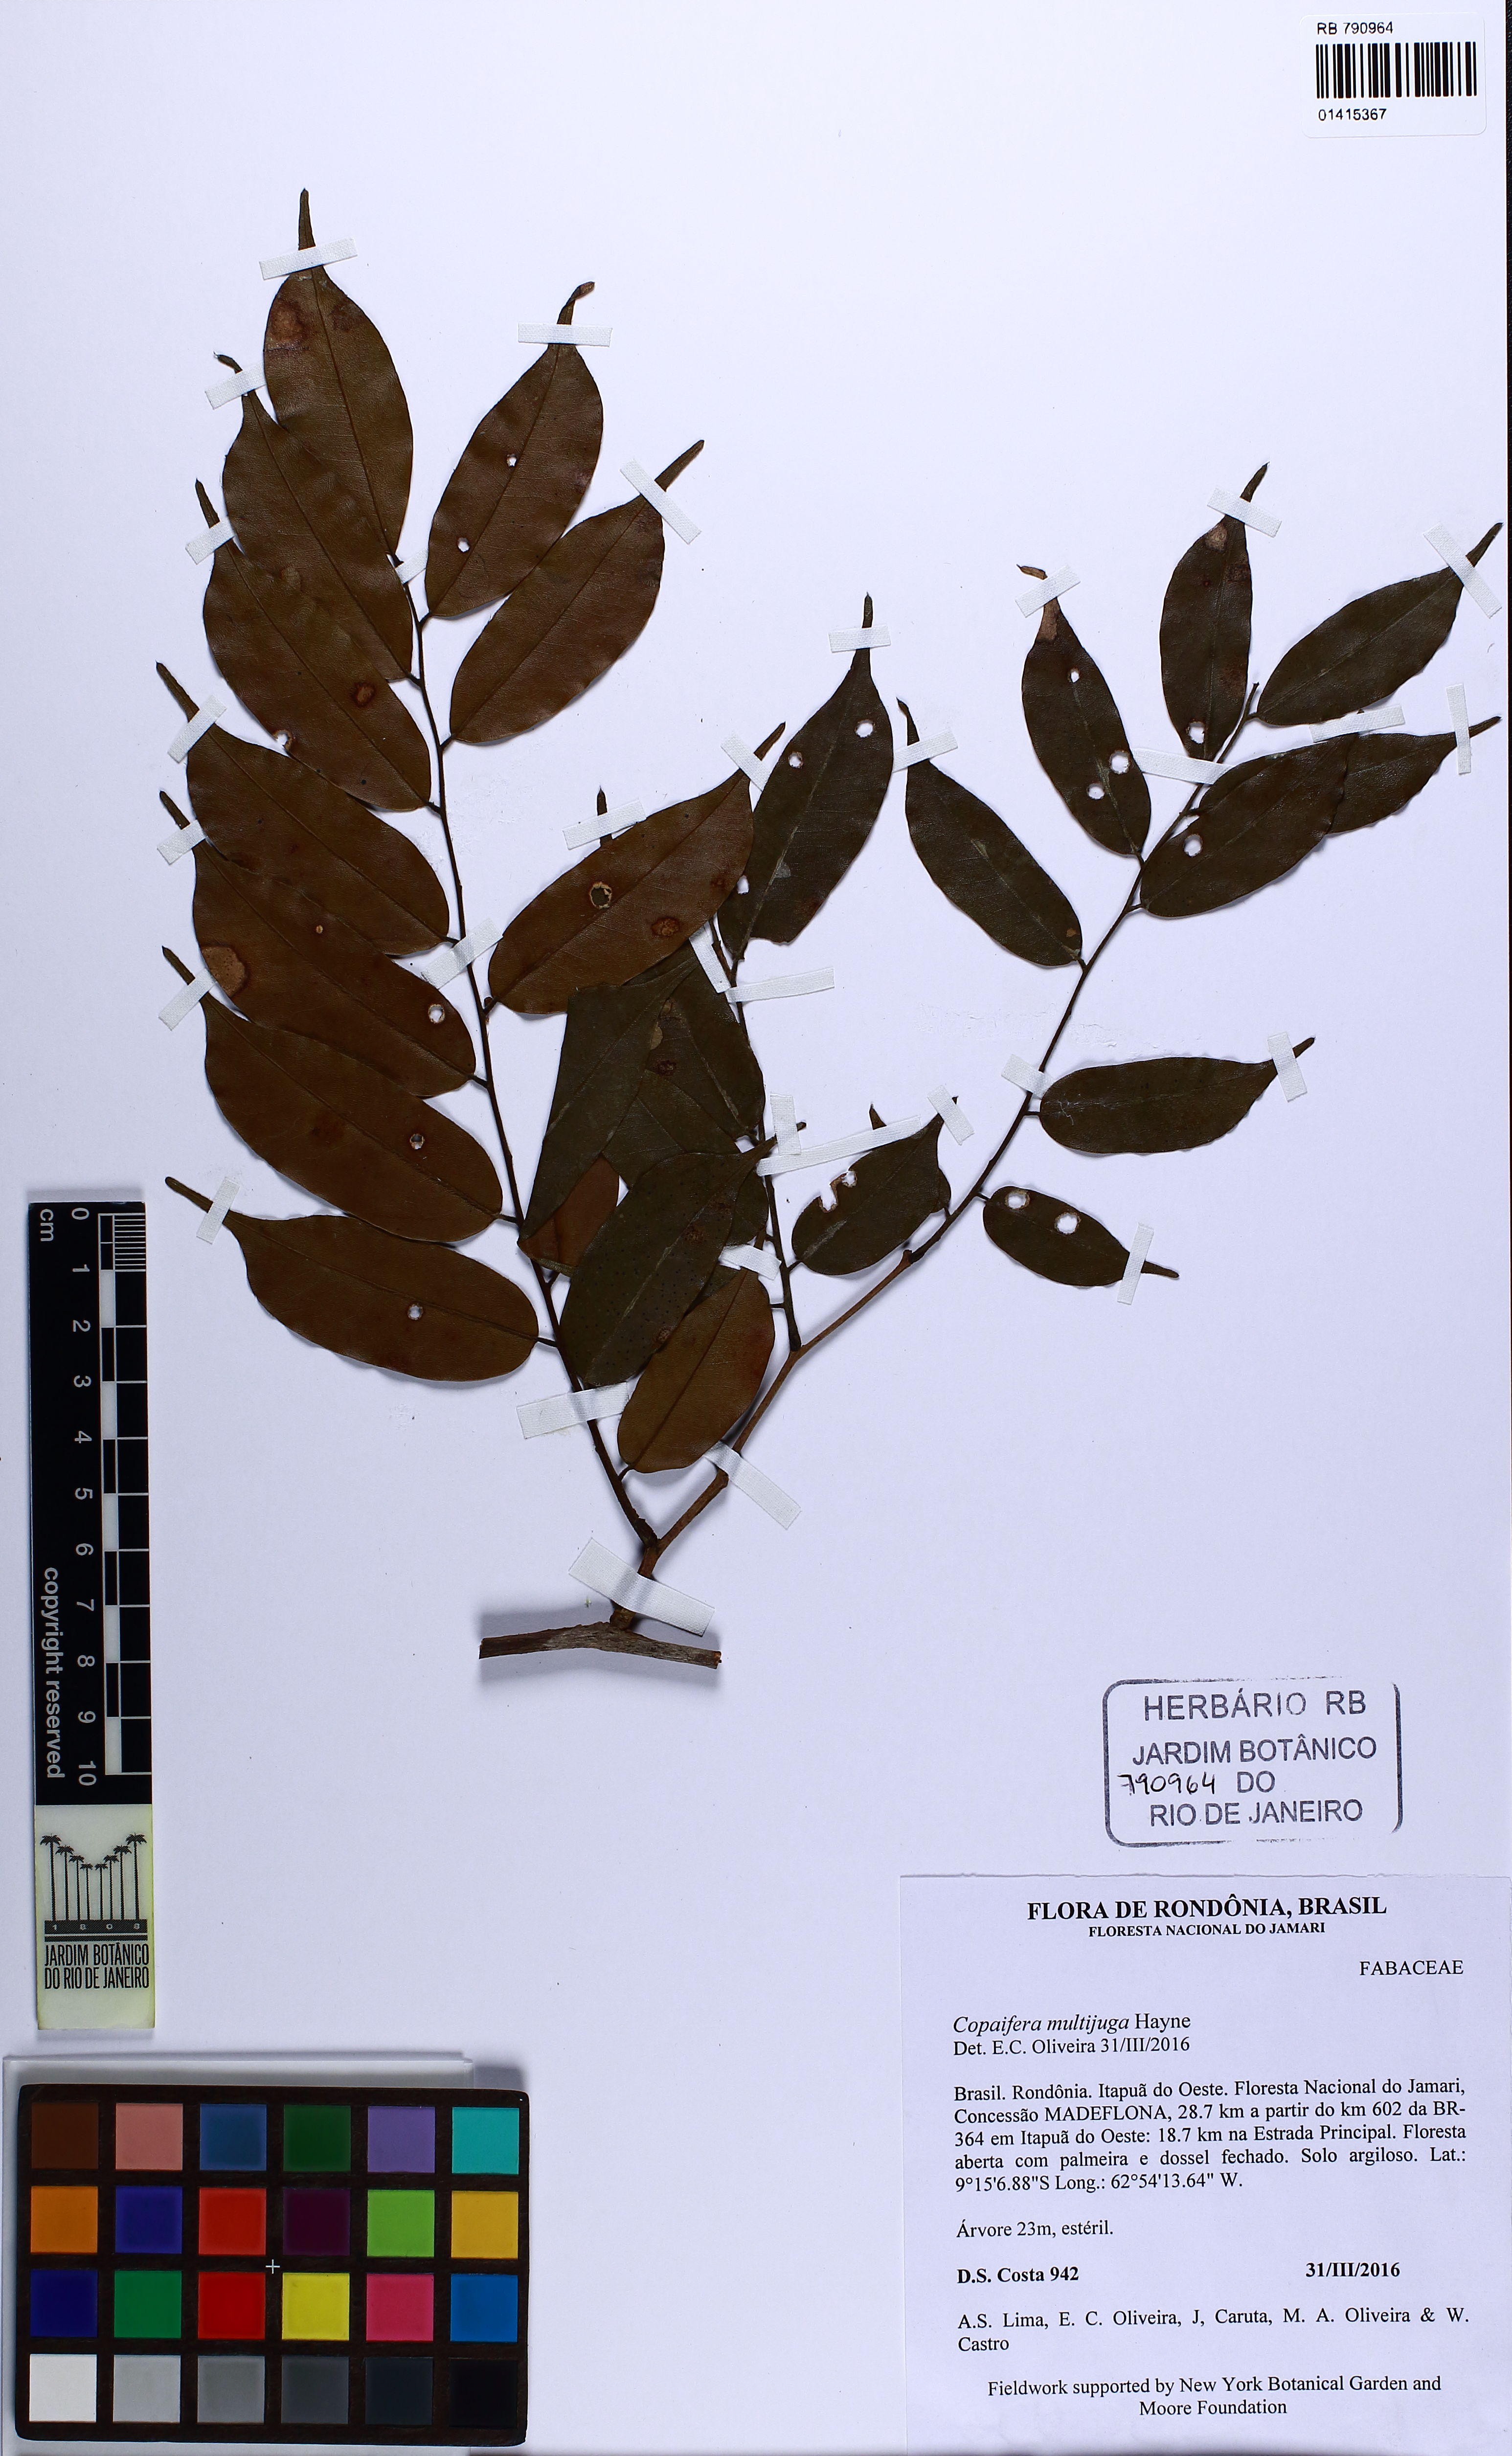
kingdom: Plantae
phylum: Tracheophyta
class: Magnoliopsida
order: Fabales
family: Fabaceae
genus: Copaifera
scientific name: Copaifera multijuga
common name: Brazilian copaiba
